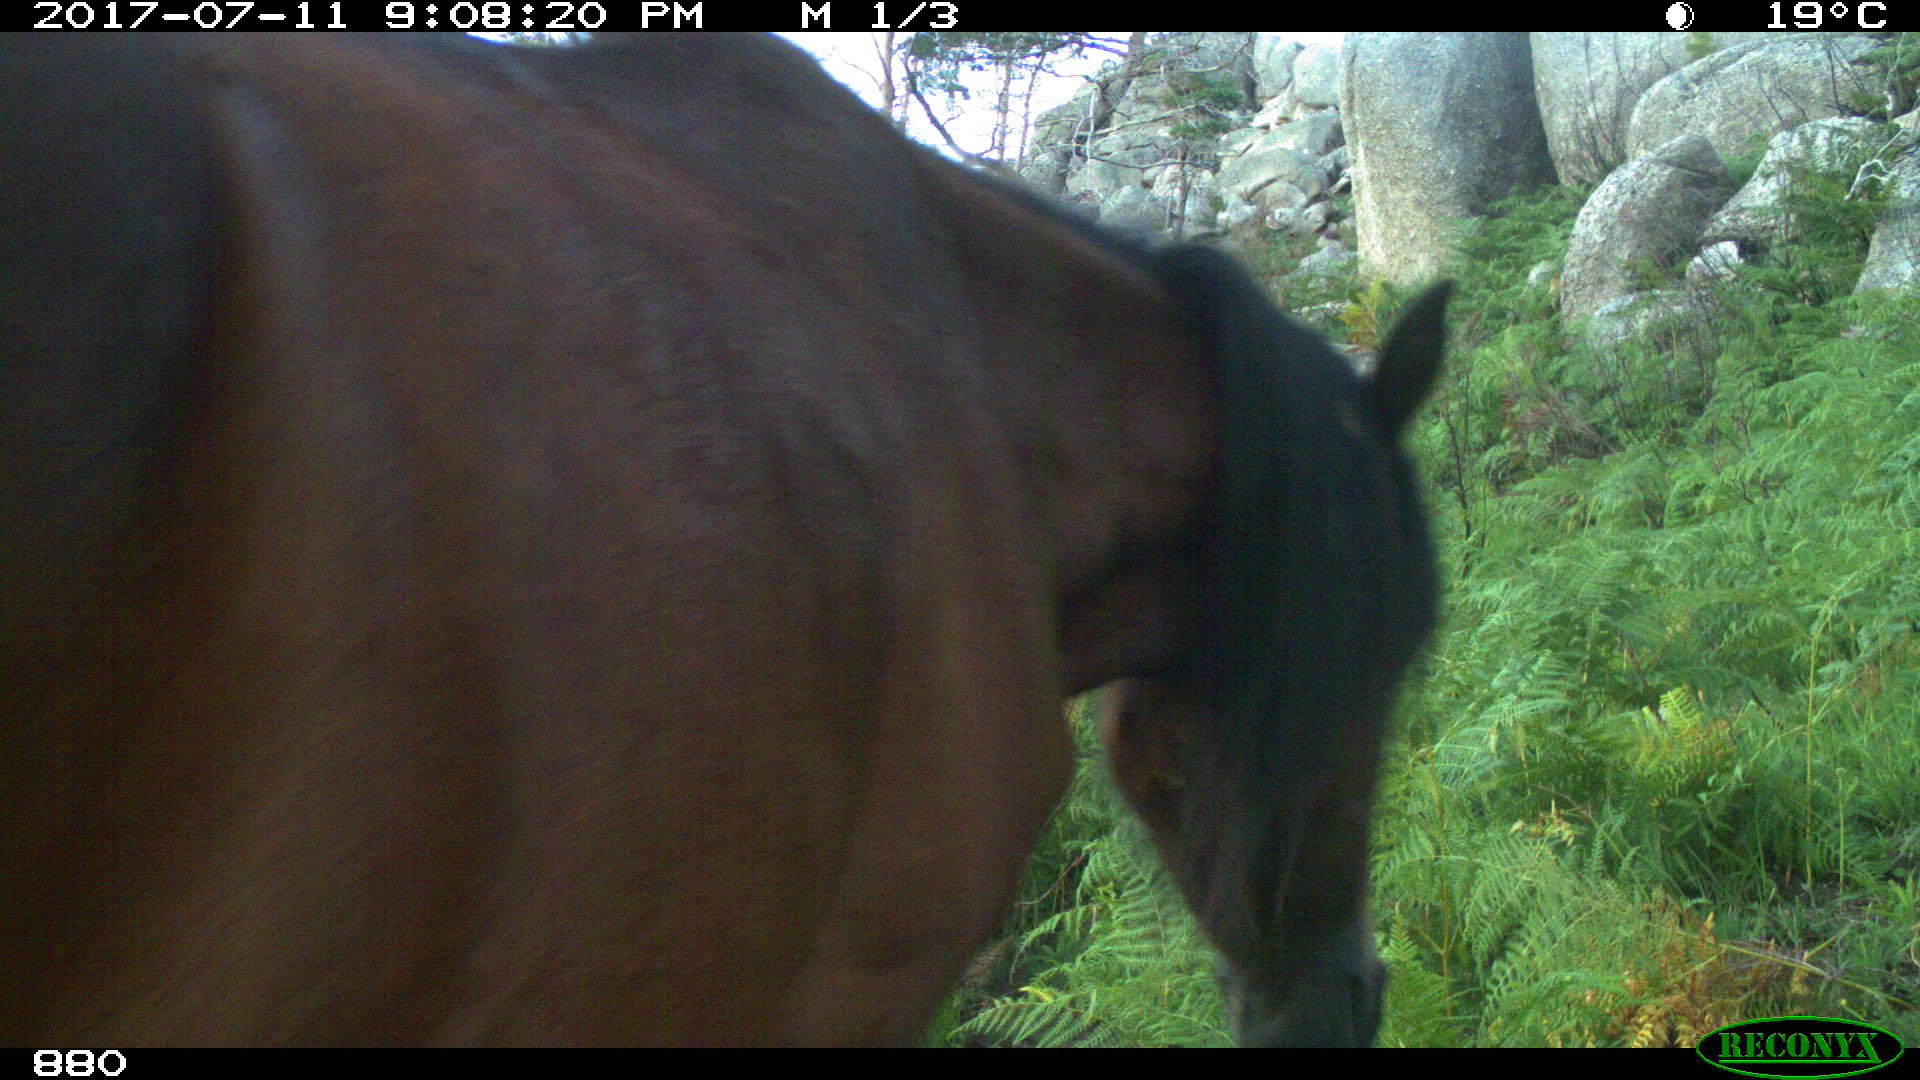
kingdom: Animalia
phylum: Chordata
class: Mammalia
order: Perissodactyla
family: Equidae
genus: Equus
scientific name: Equus caballus
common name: Horse
